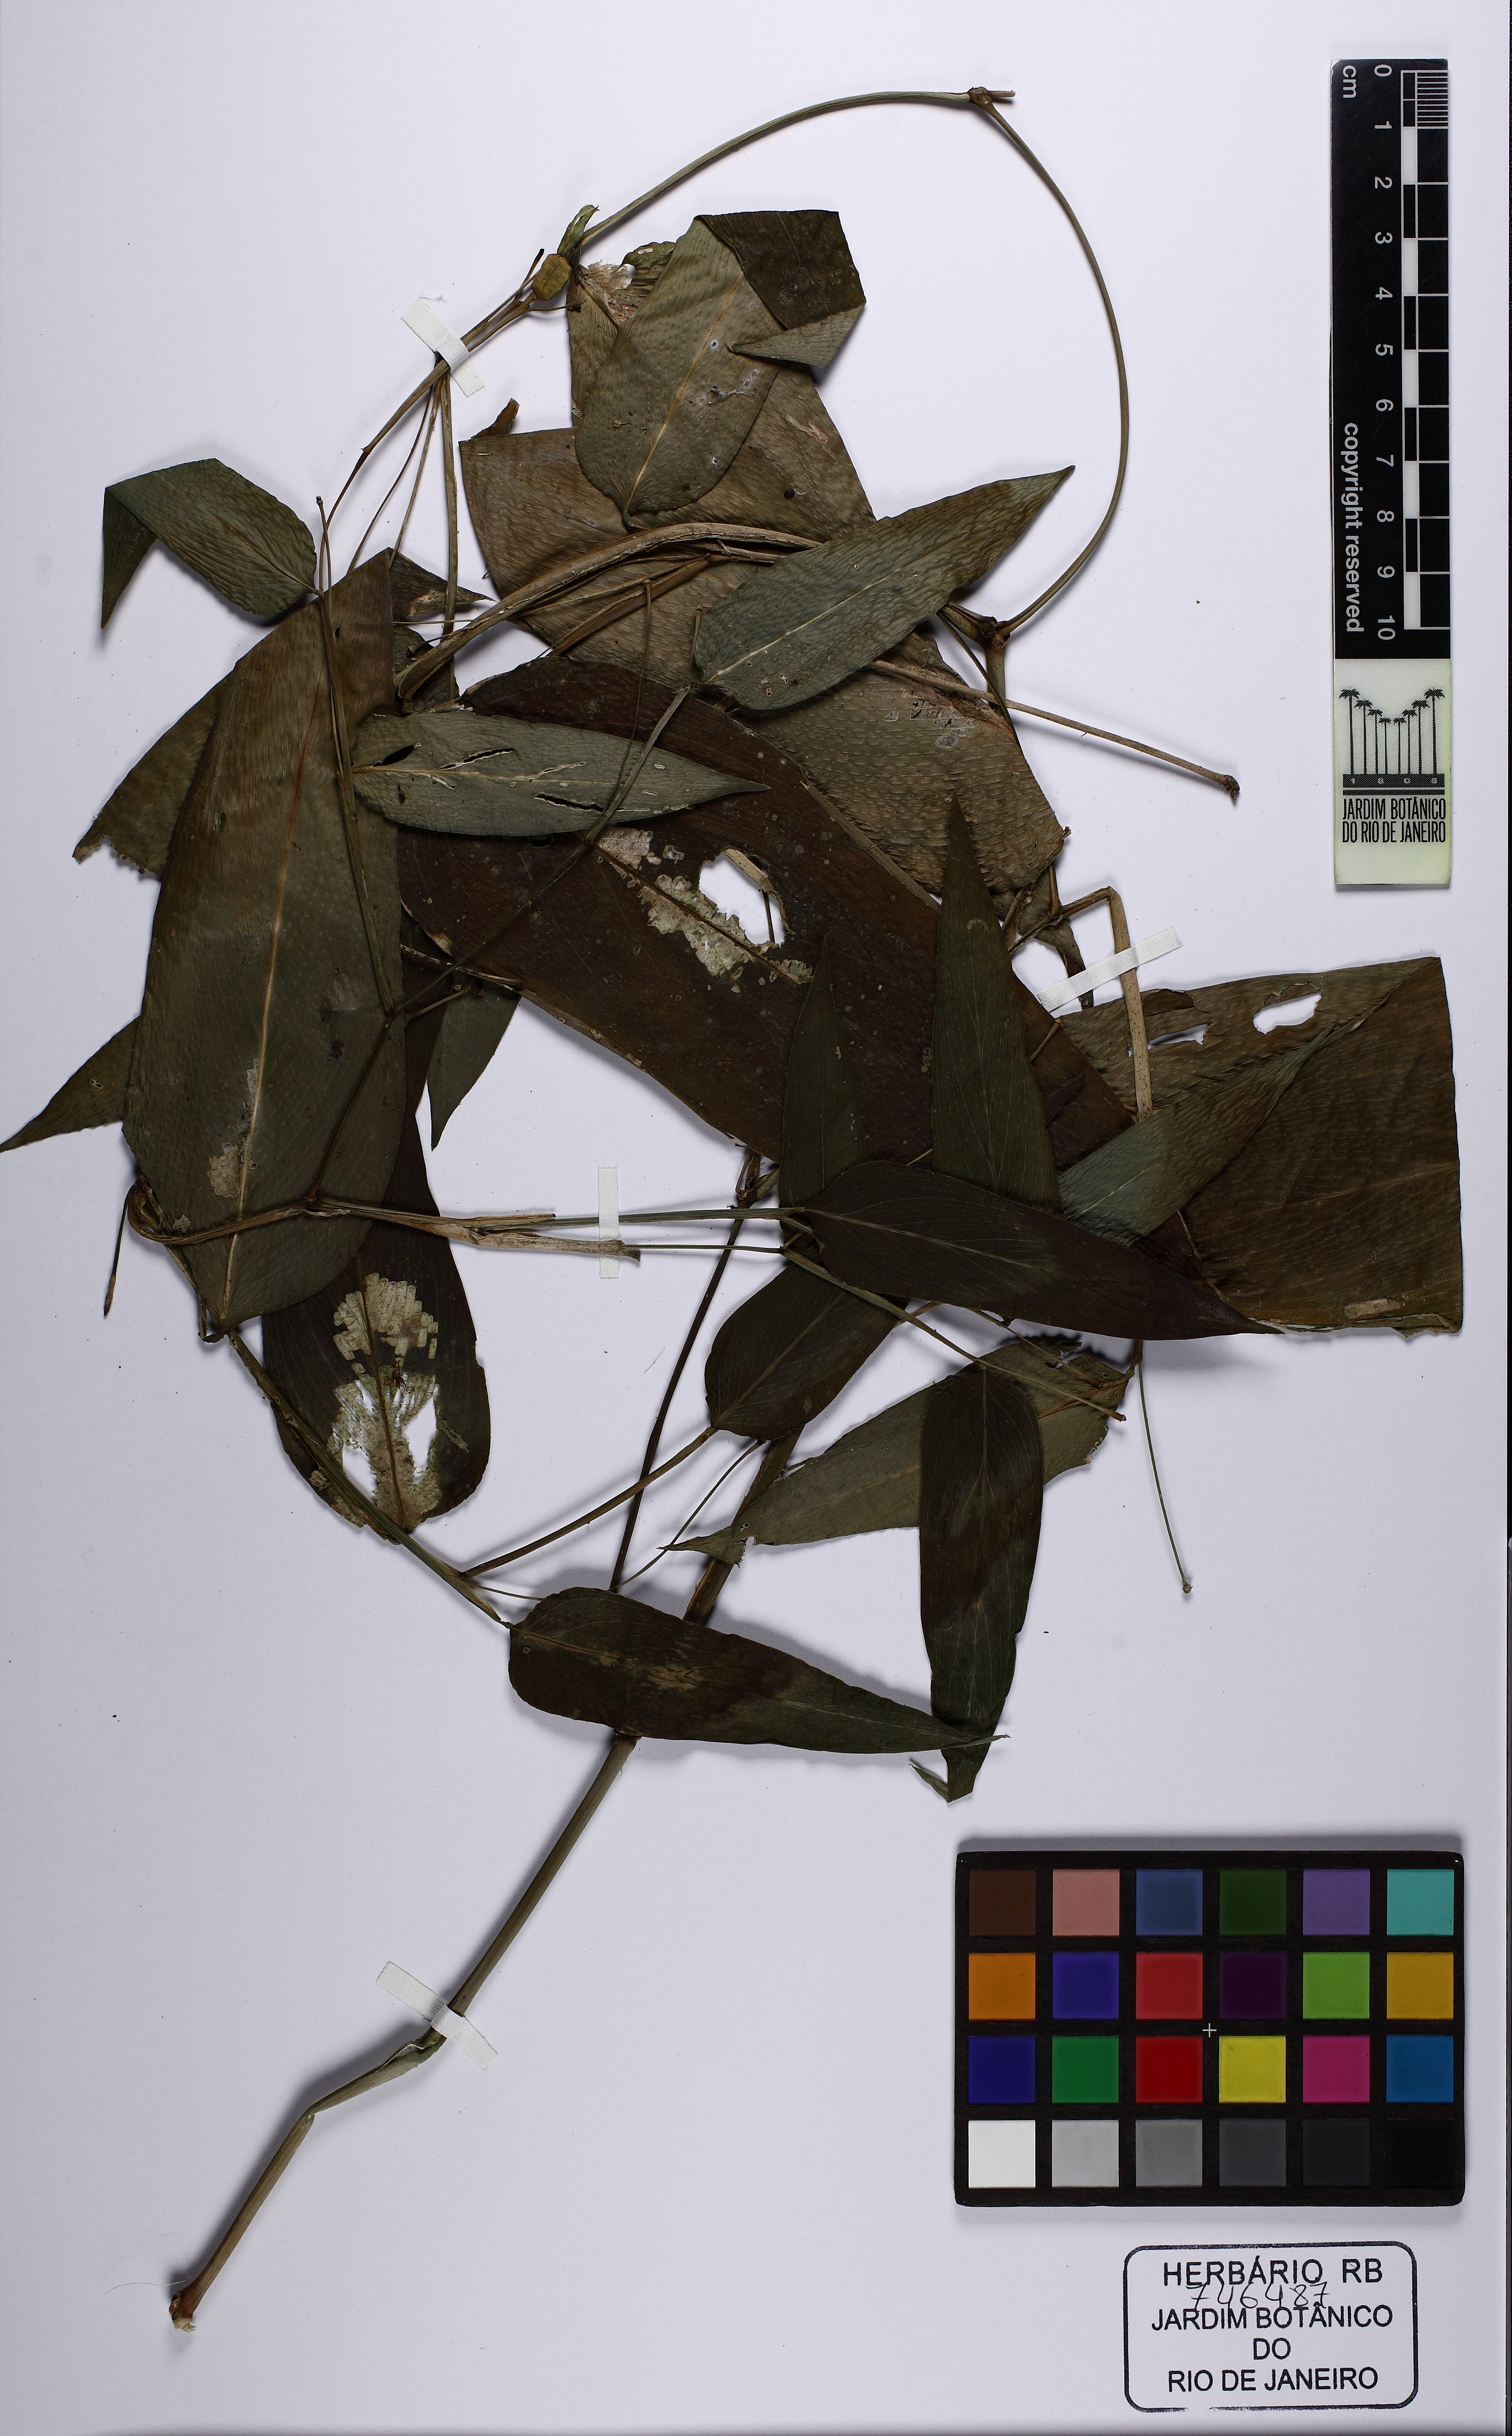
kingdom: Plantae
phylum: Tracheophyta
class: Liliopsida
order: Zingiberales
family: Marantaceae
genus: Maranta
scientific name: Maranta divaricata
